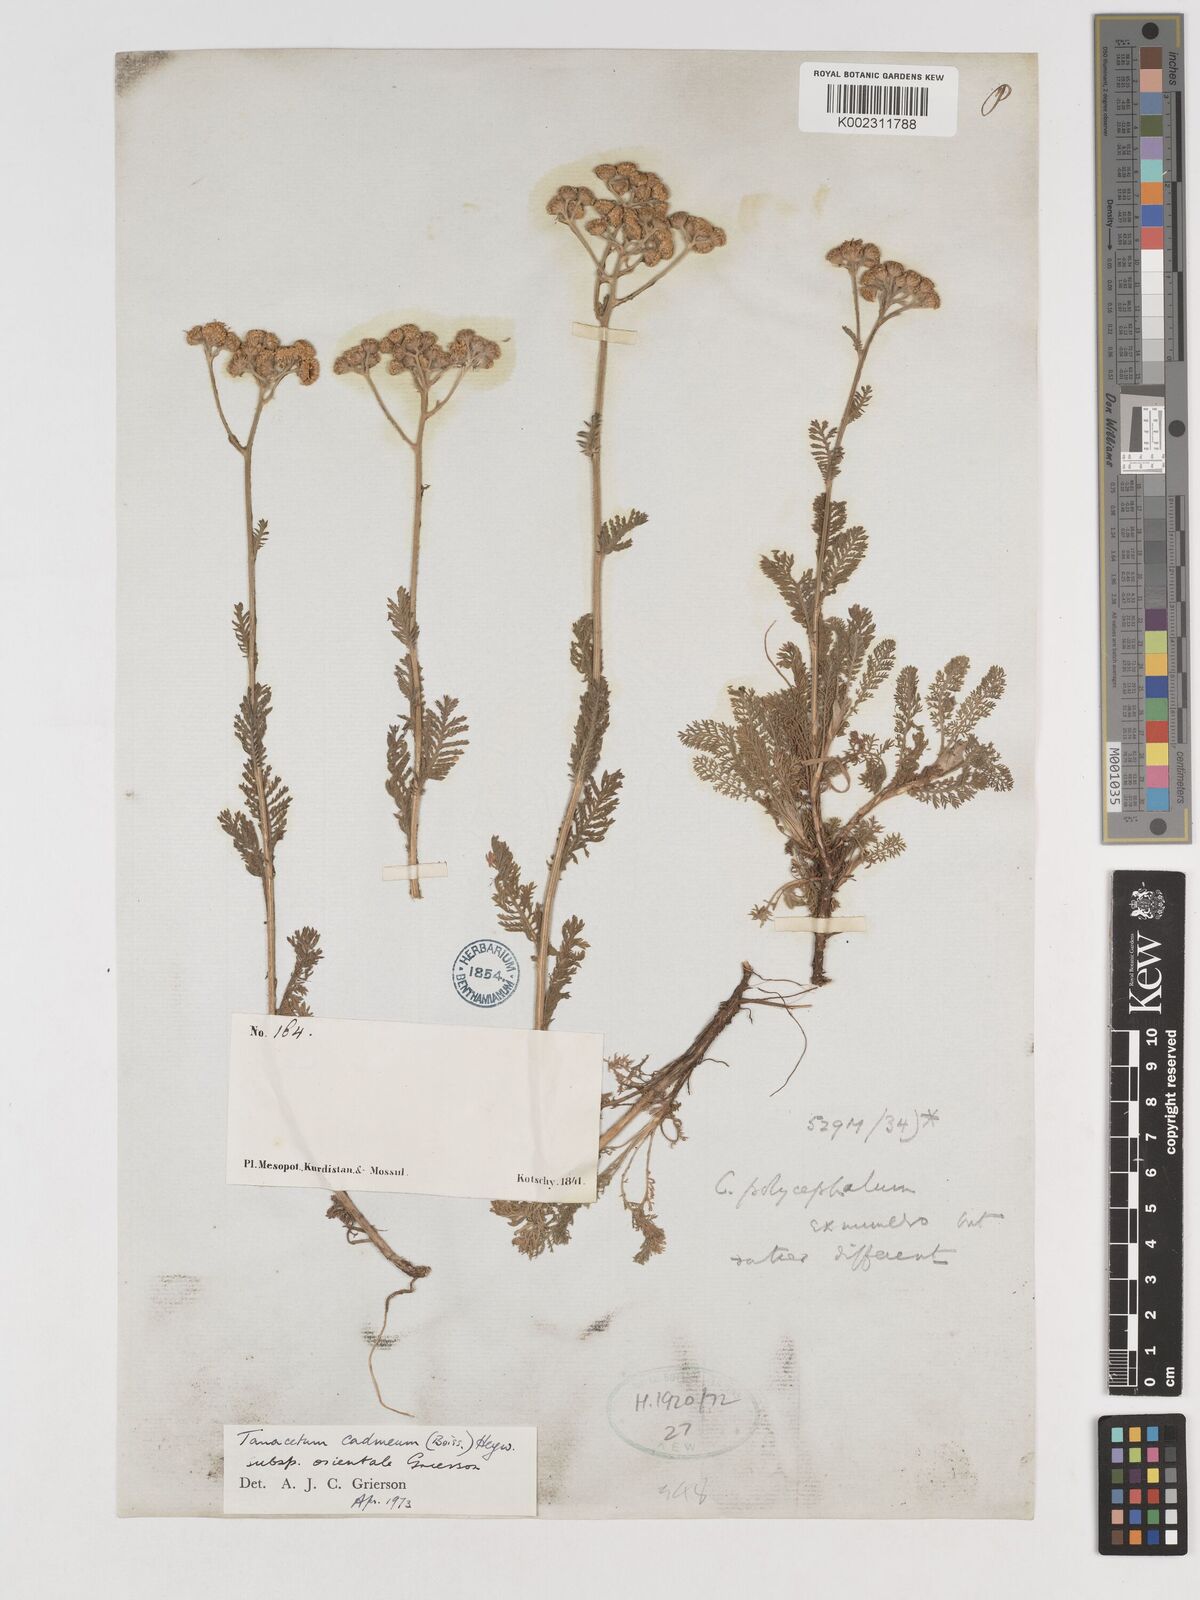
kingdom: Plantae
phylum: Tracheophyta
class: Magnoliopsida
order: Asterales
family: Asteraceae
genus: Tanacetum
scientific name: Tanacetum cadmeum
